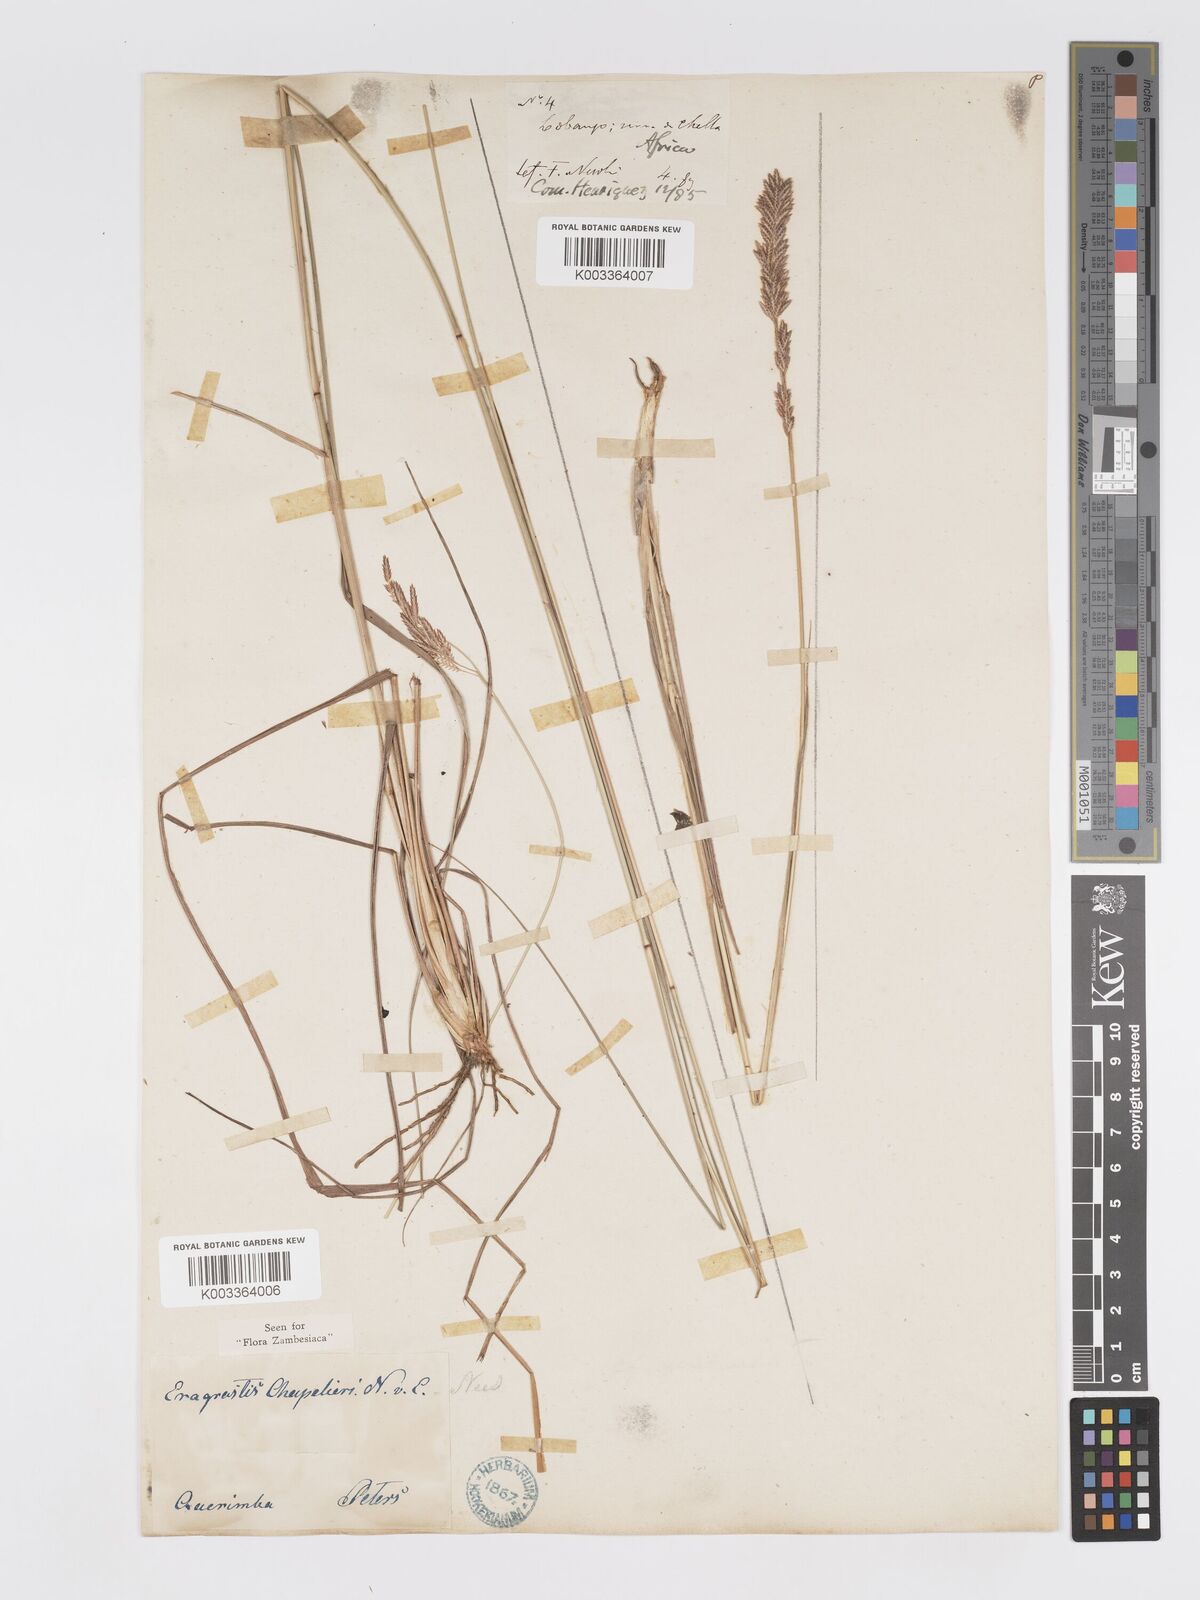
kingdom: Plantae
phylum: Tracheophyta
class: Liliopsida
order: Poales
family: Poaceae
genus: Eragrostis
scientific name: Eragrostis chapelieri
